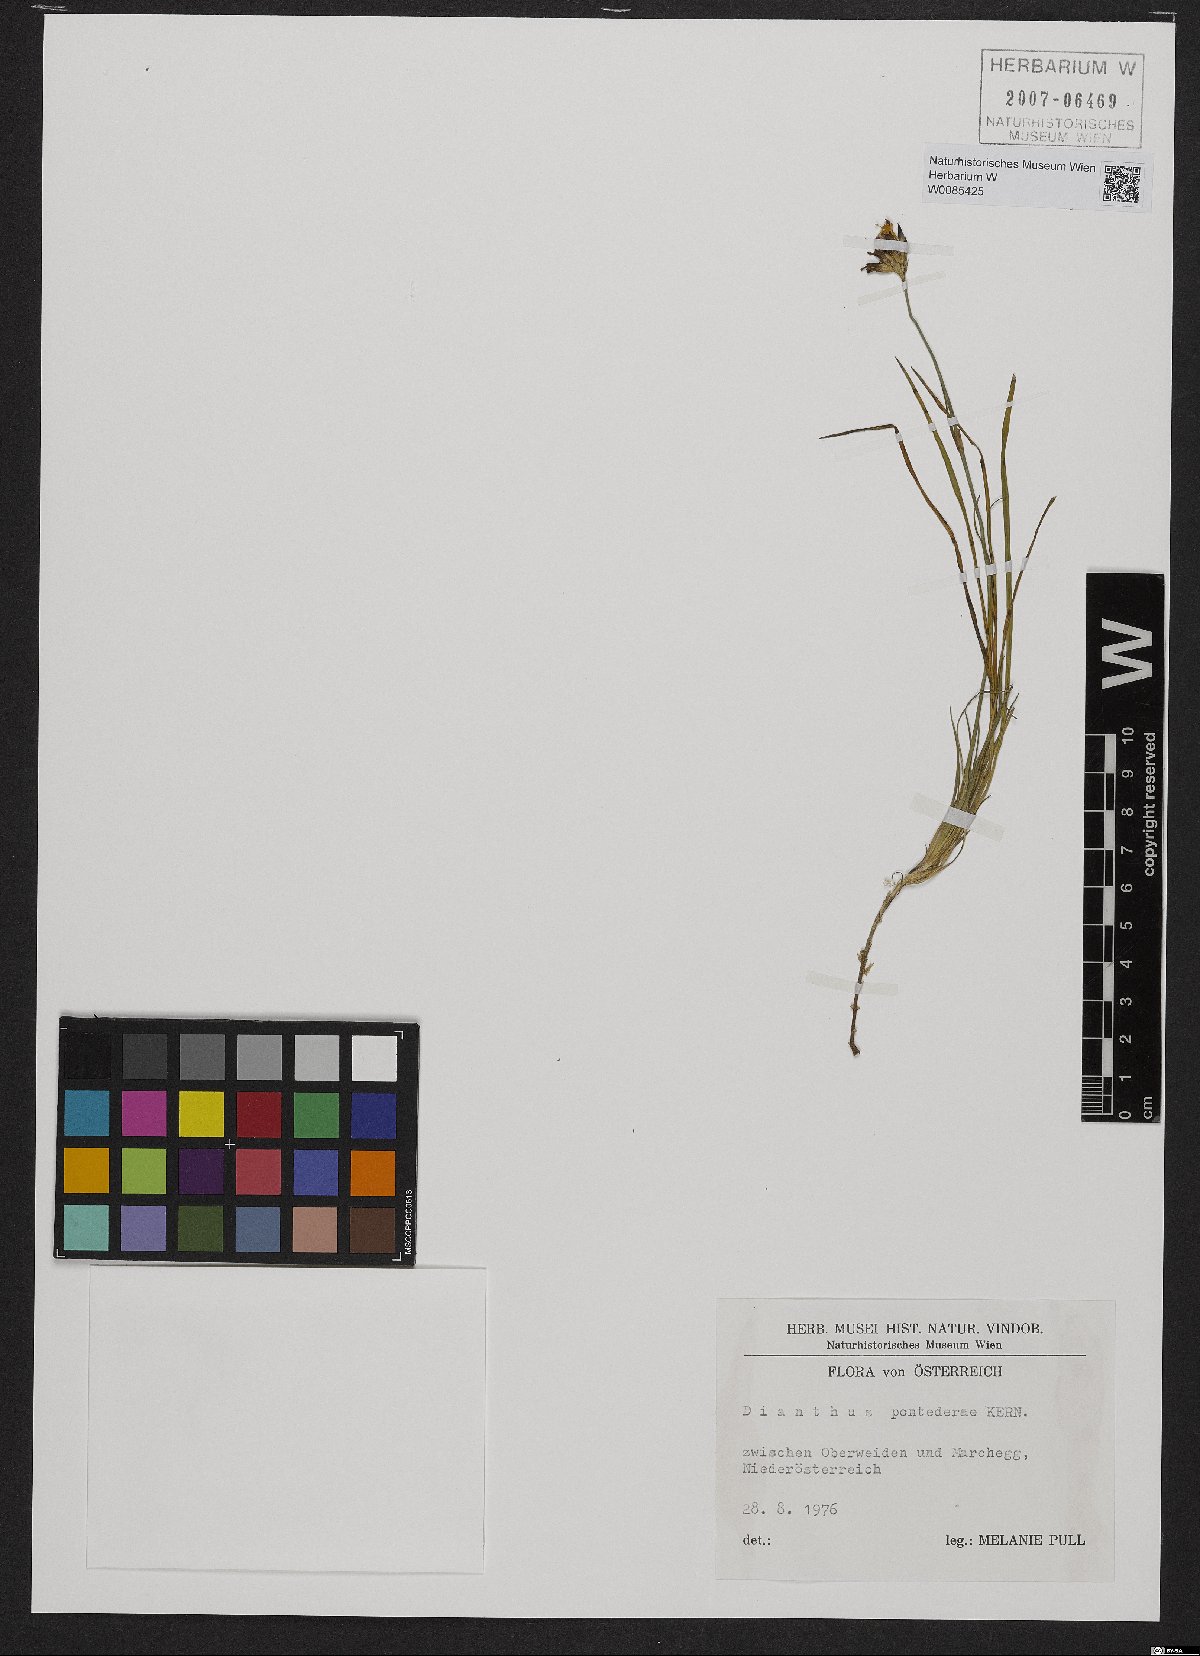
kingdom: Plantae
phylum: Tracheophyta
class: Magnoliopsida
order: Caryophyllales
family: Caryophyllaceae
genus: Dianthus
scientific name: Dianthus pontederae
